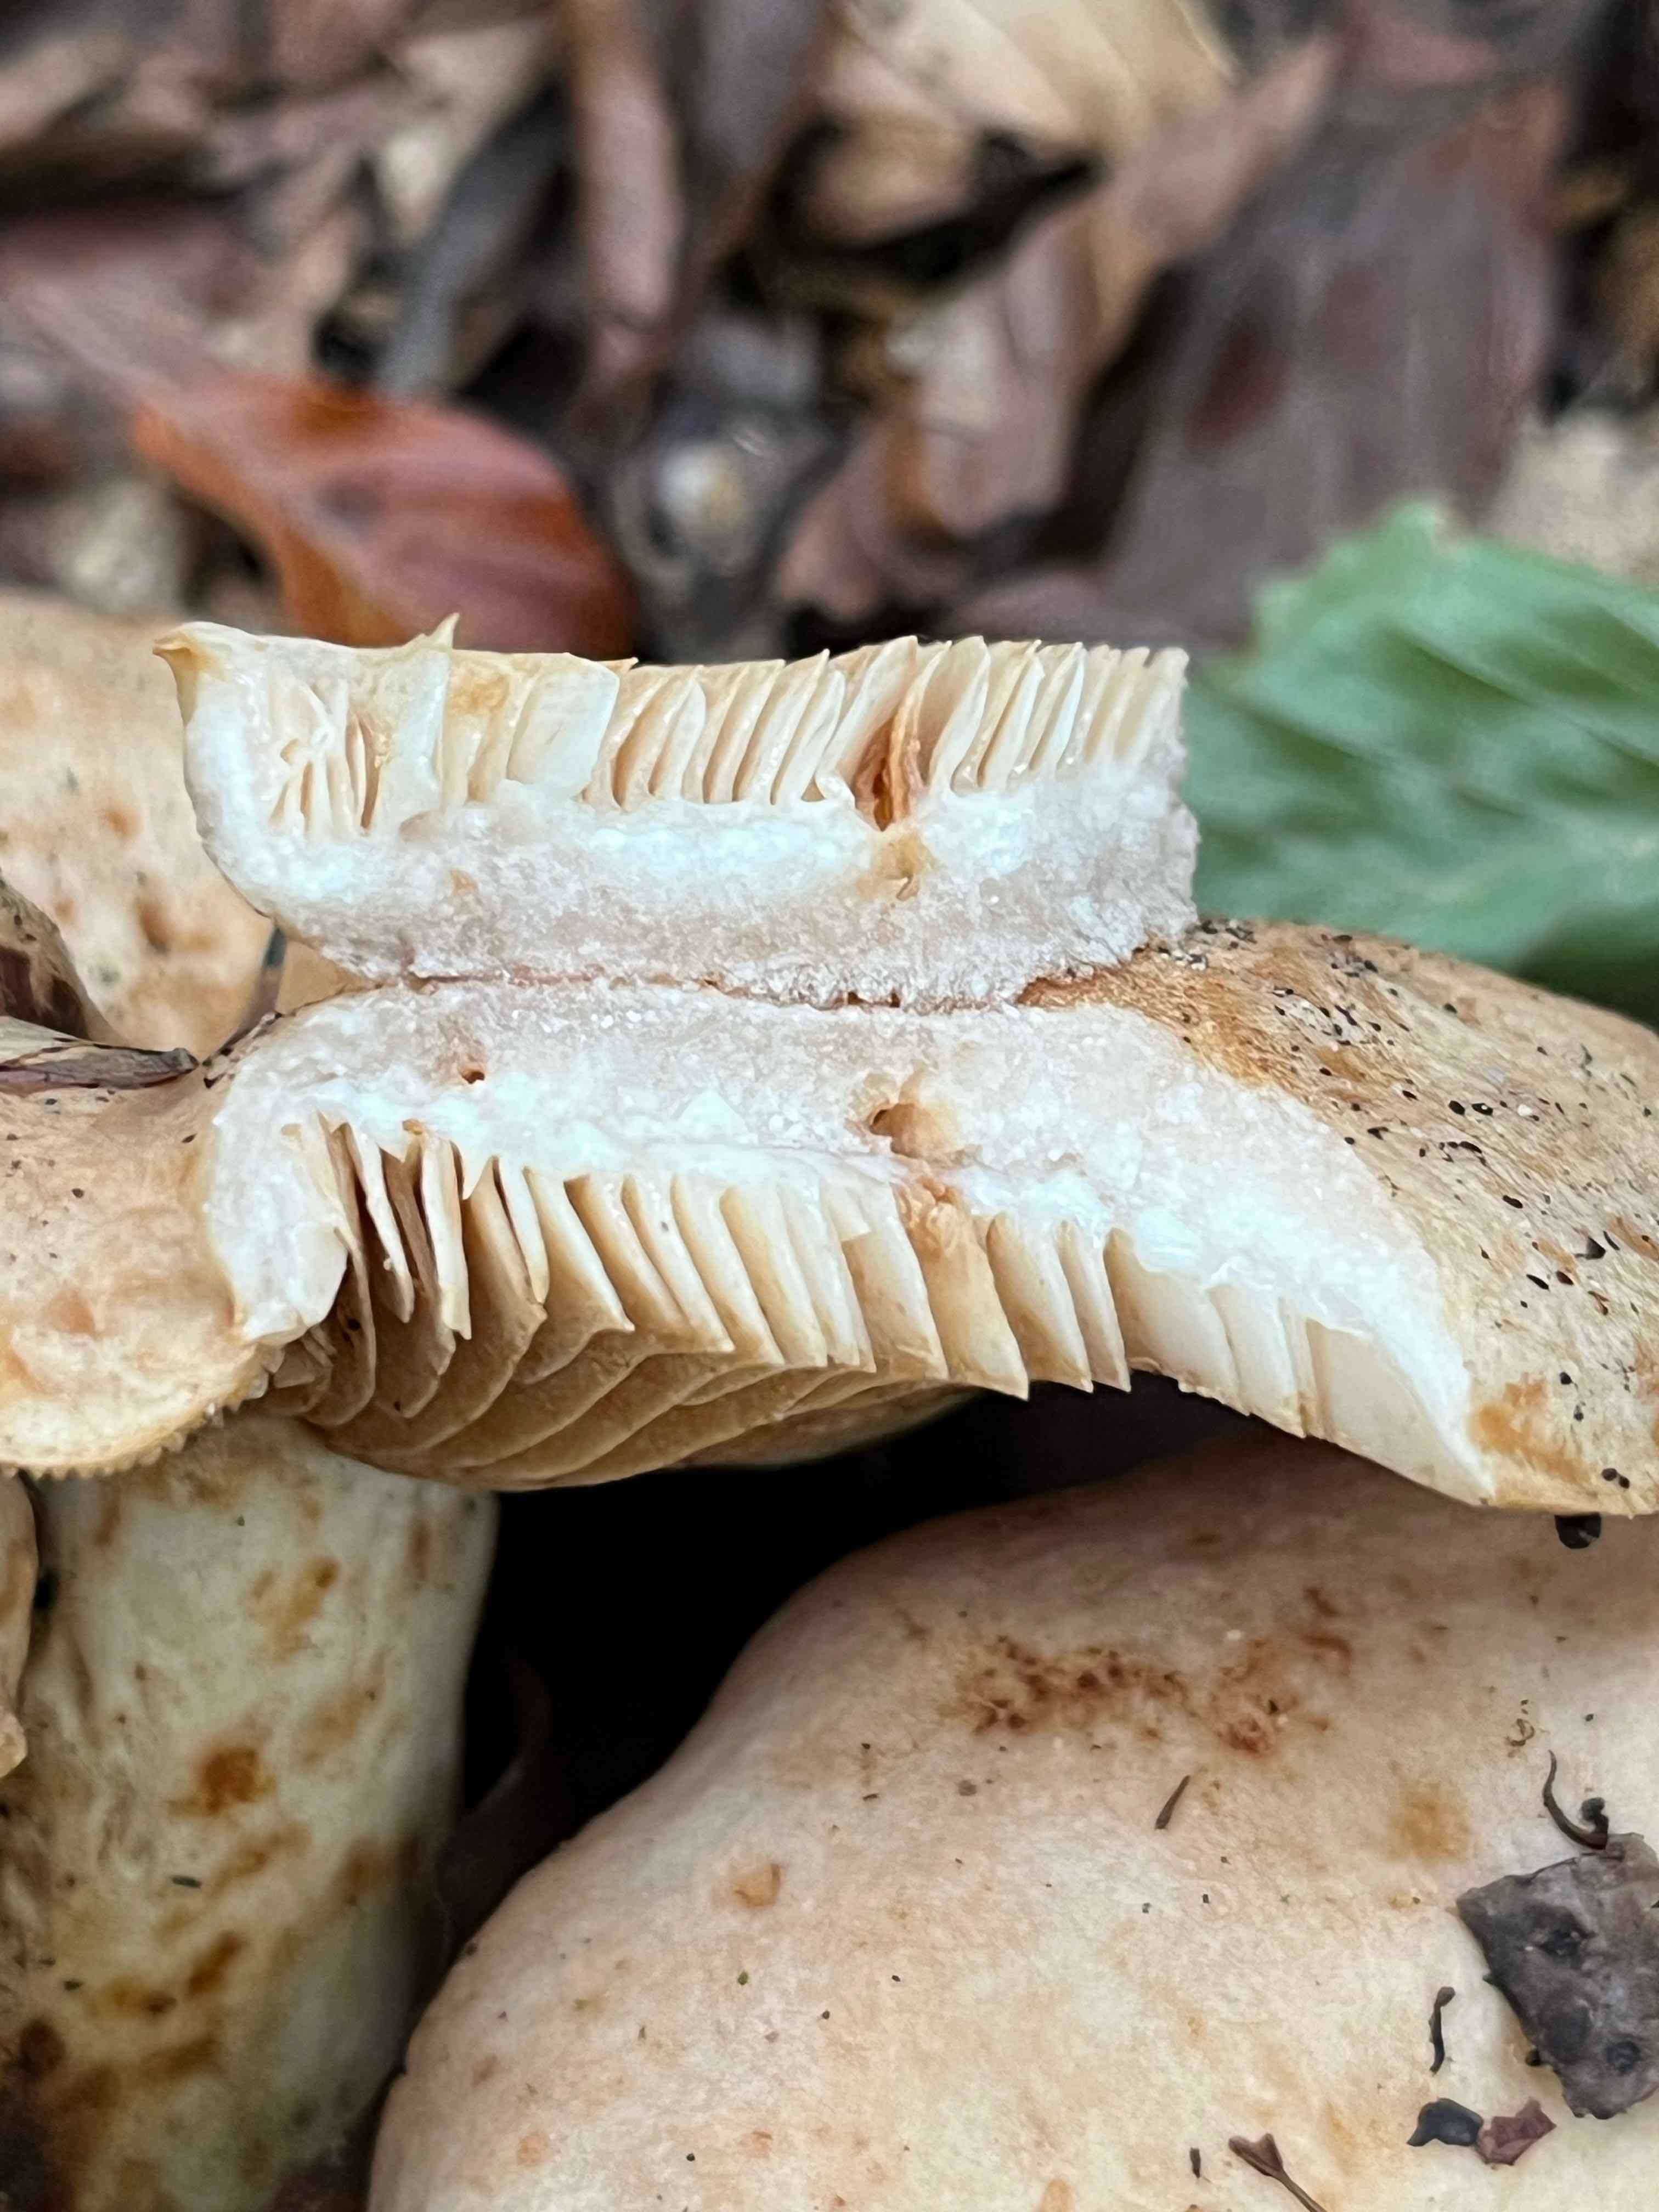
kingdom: Fungi
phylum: Basidiomycota
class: Agaricomycetes
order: Russulales
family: Russulaceae
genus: Lactarius
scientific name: Lactarius pallidus
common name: bleg mælkehat
